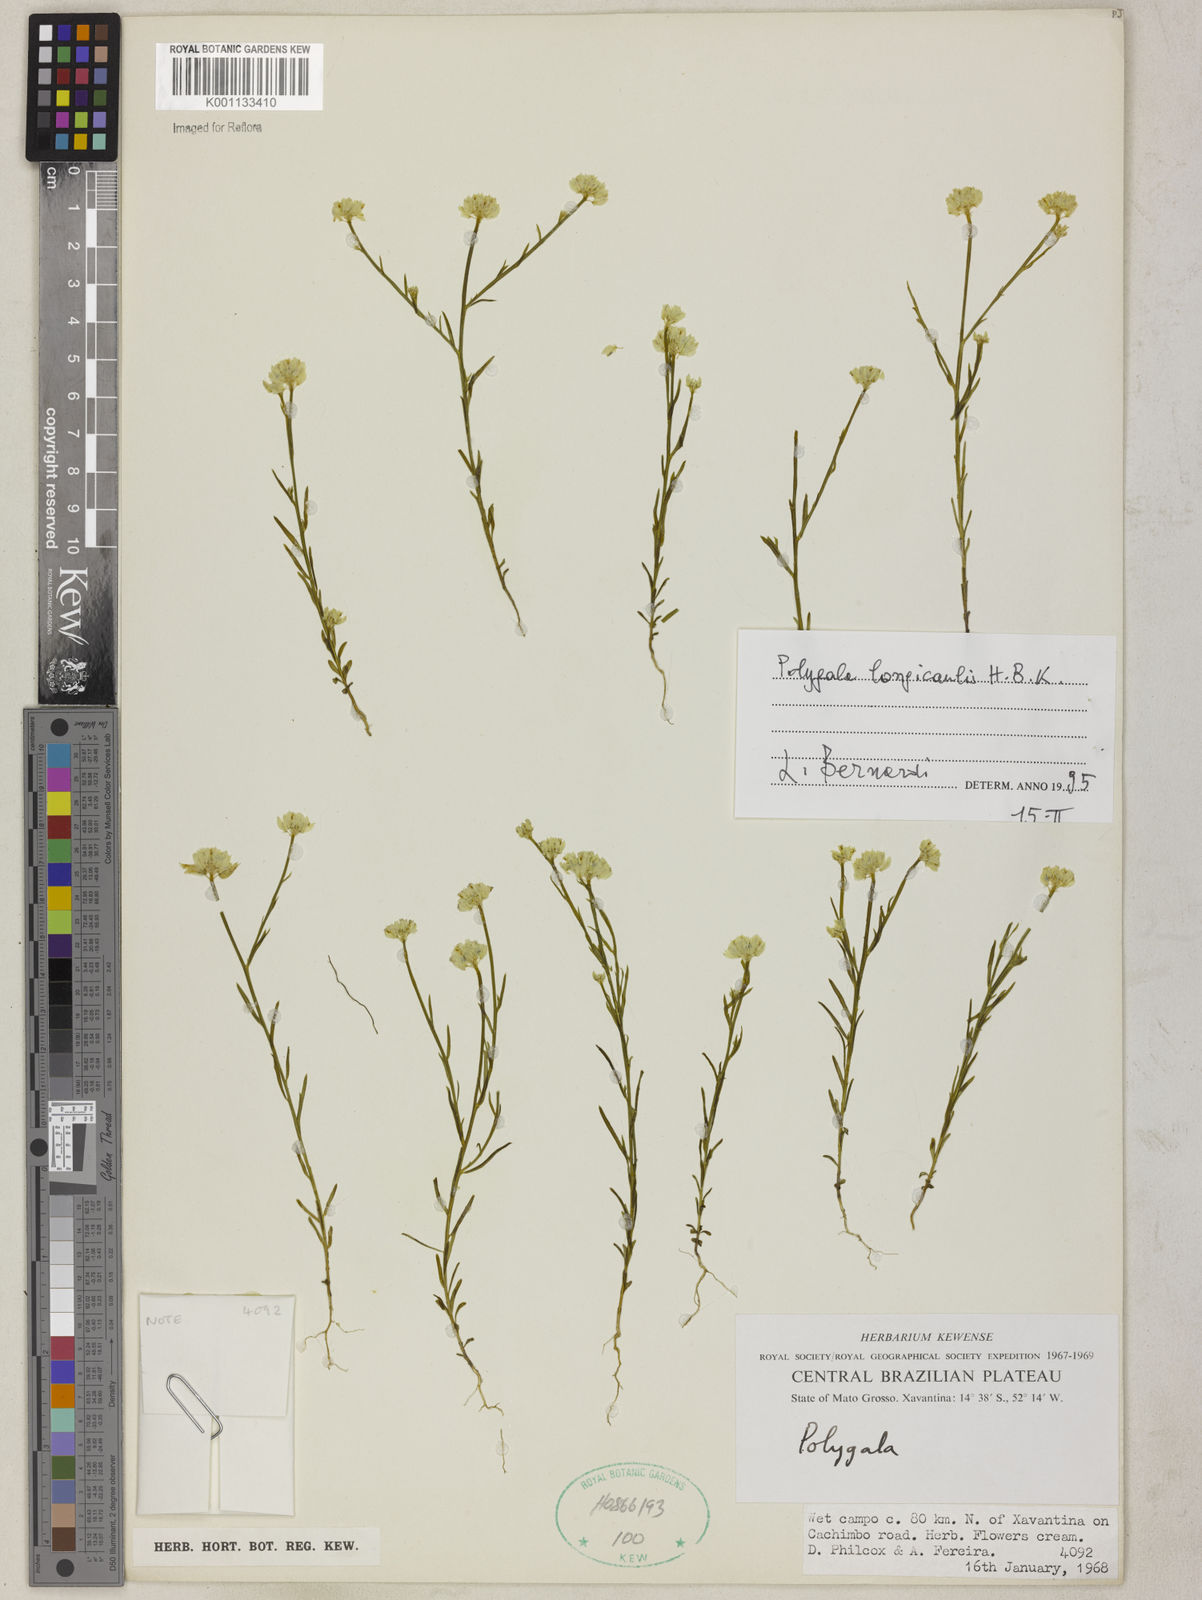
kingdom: Plantae
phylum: Tracheophyta
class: Magnoliopsida
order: Fabales
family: Polygalaceae
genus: Polygala
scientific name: Polygala longicaulis
